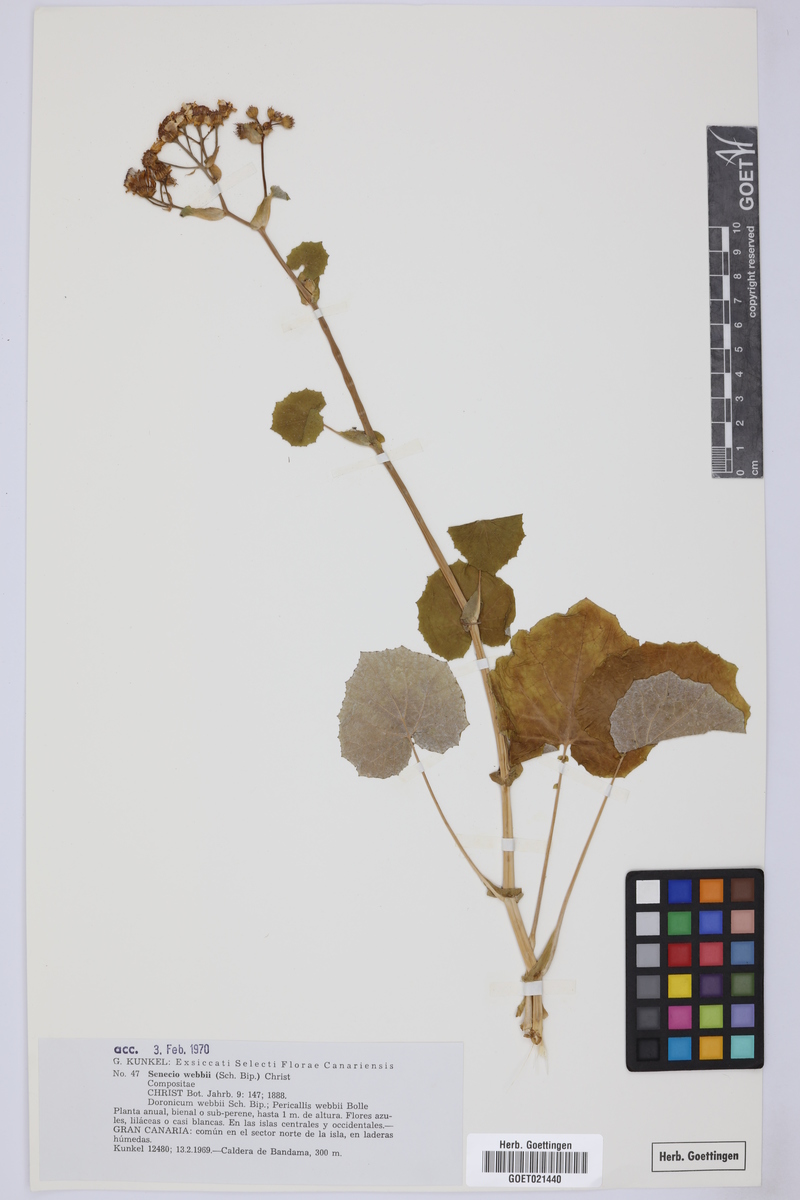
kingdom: Plantae
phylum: Tracheophyta
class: Magnoliopsida
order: Asterales
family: Asteraceae
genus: Pericallis
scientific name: Pericallis webbii
